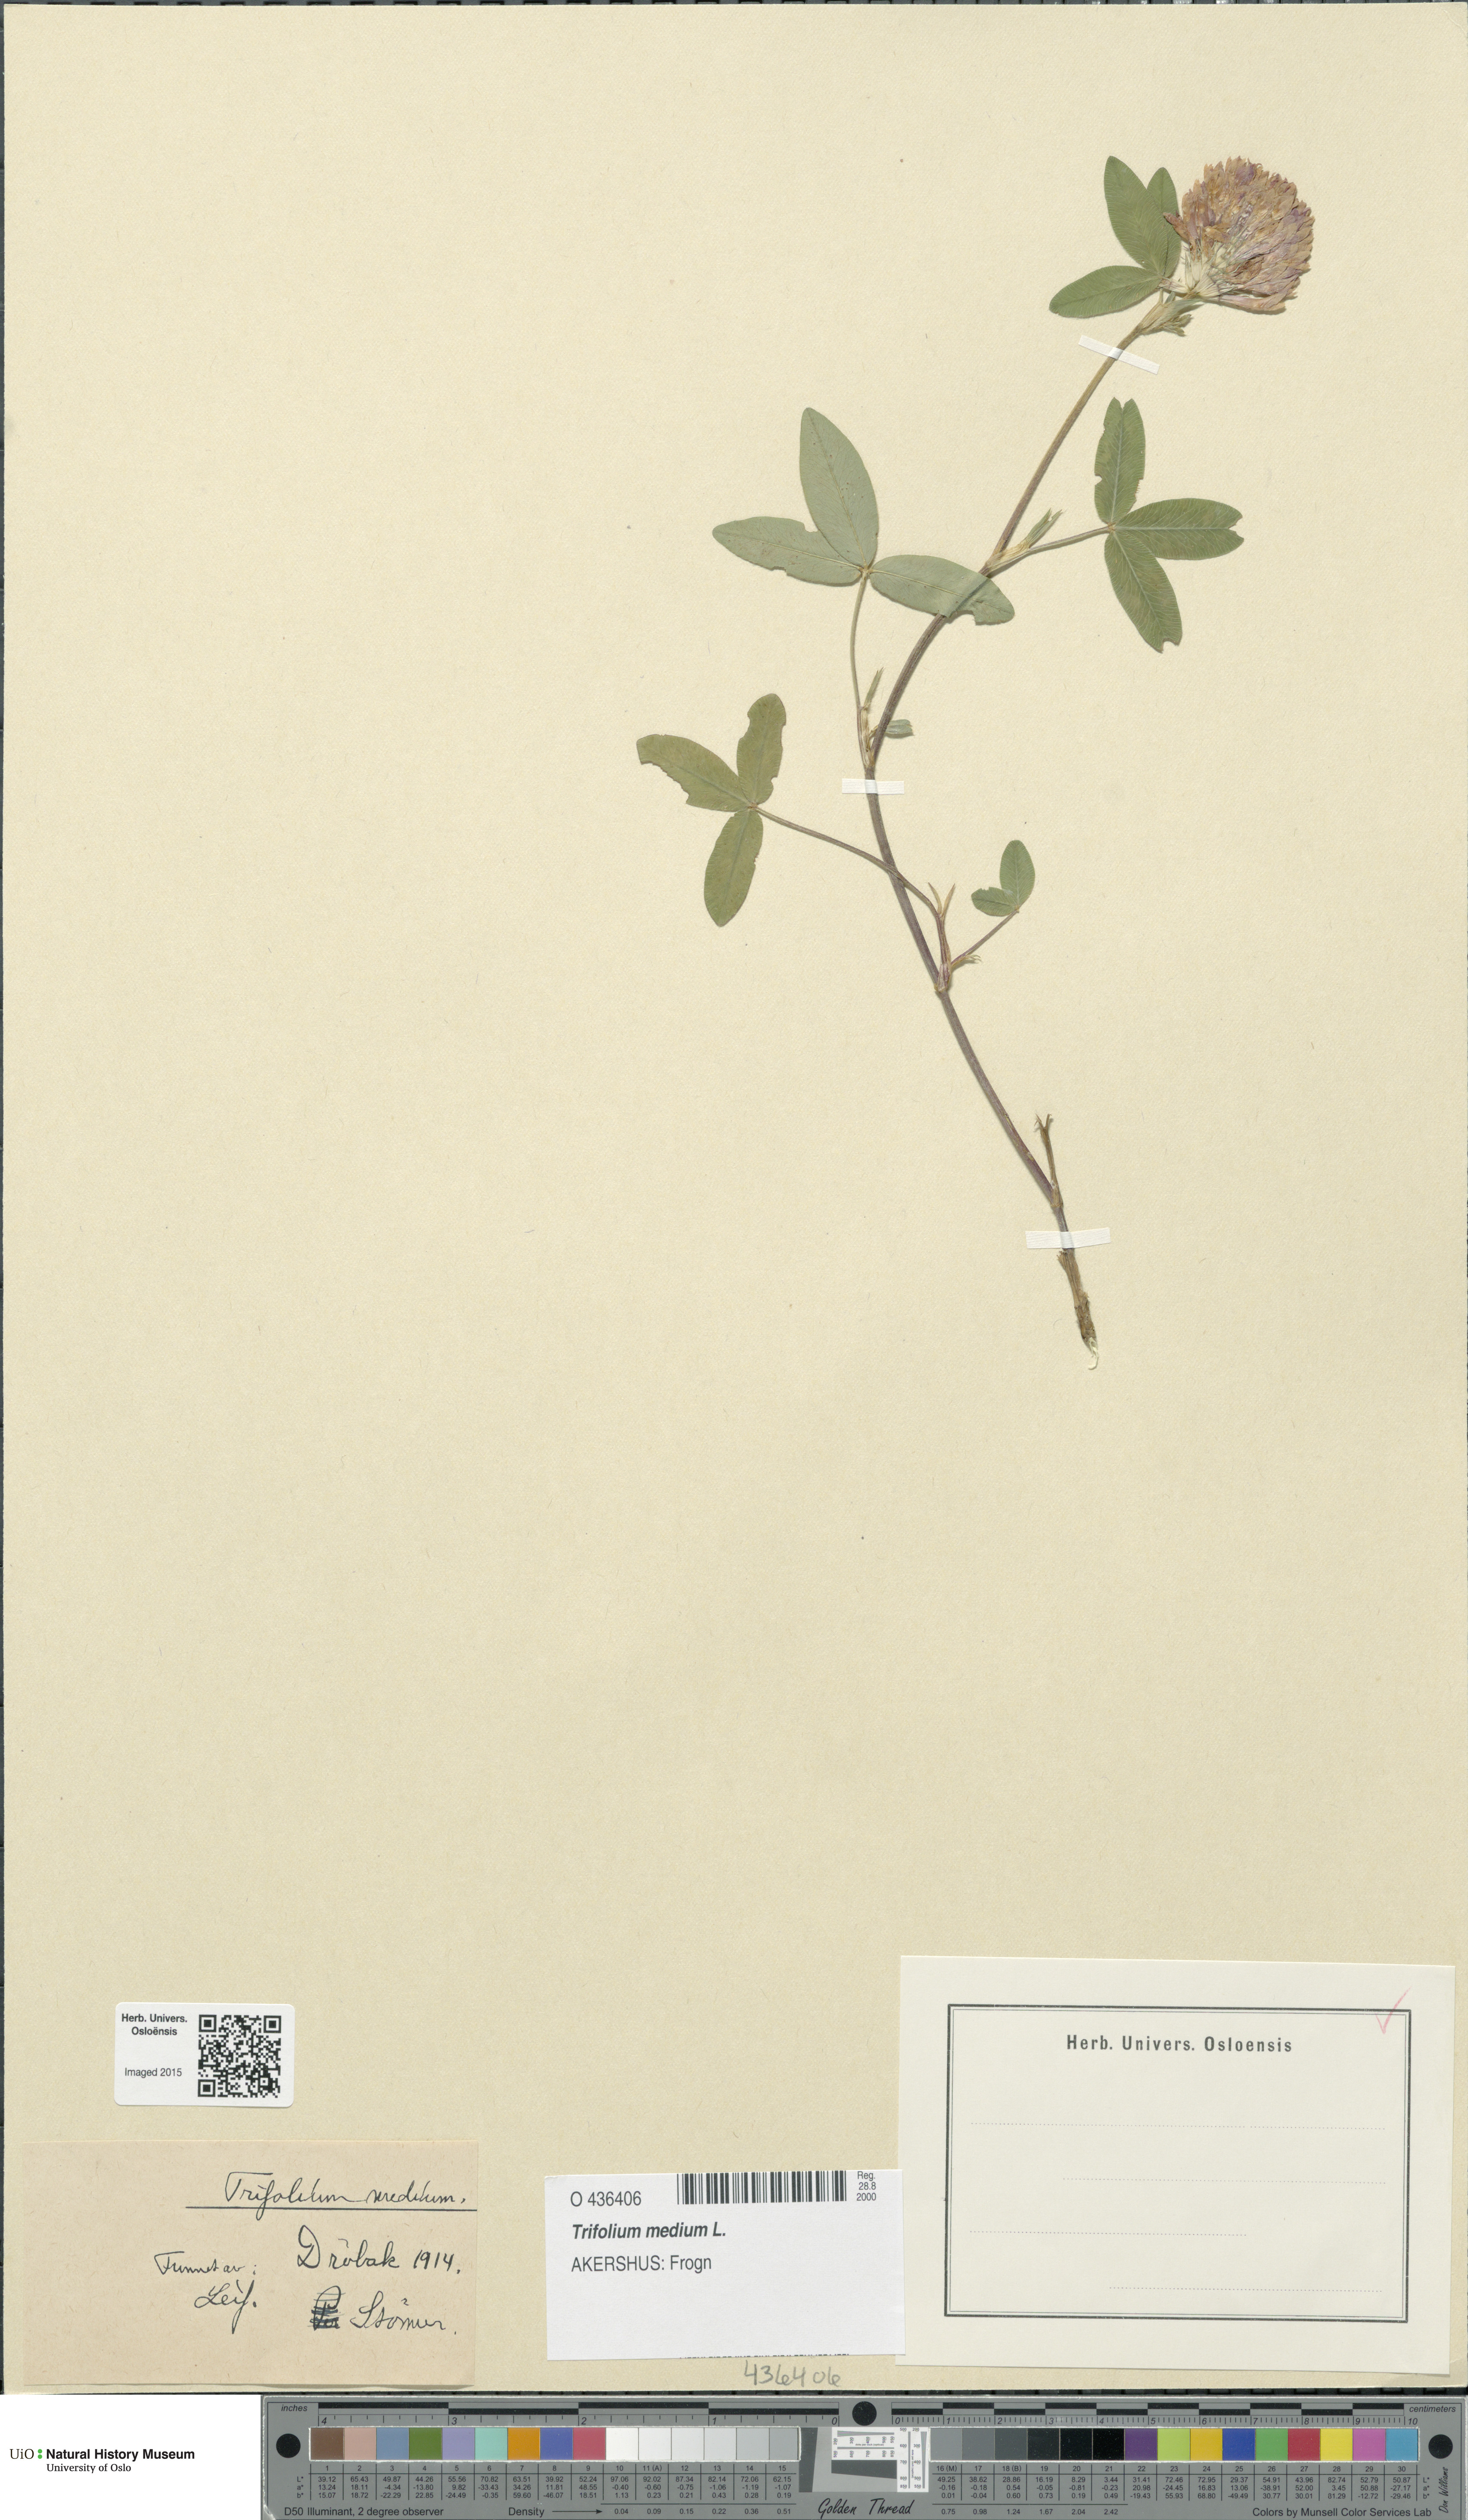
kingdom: Plantae
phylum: Tracheophyta
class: Magnoliopsida
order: Fabales
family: Fabaceae
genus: Trifolium
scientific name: Trifolium medium
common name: Zigzag clover
